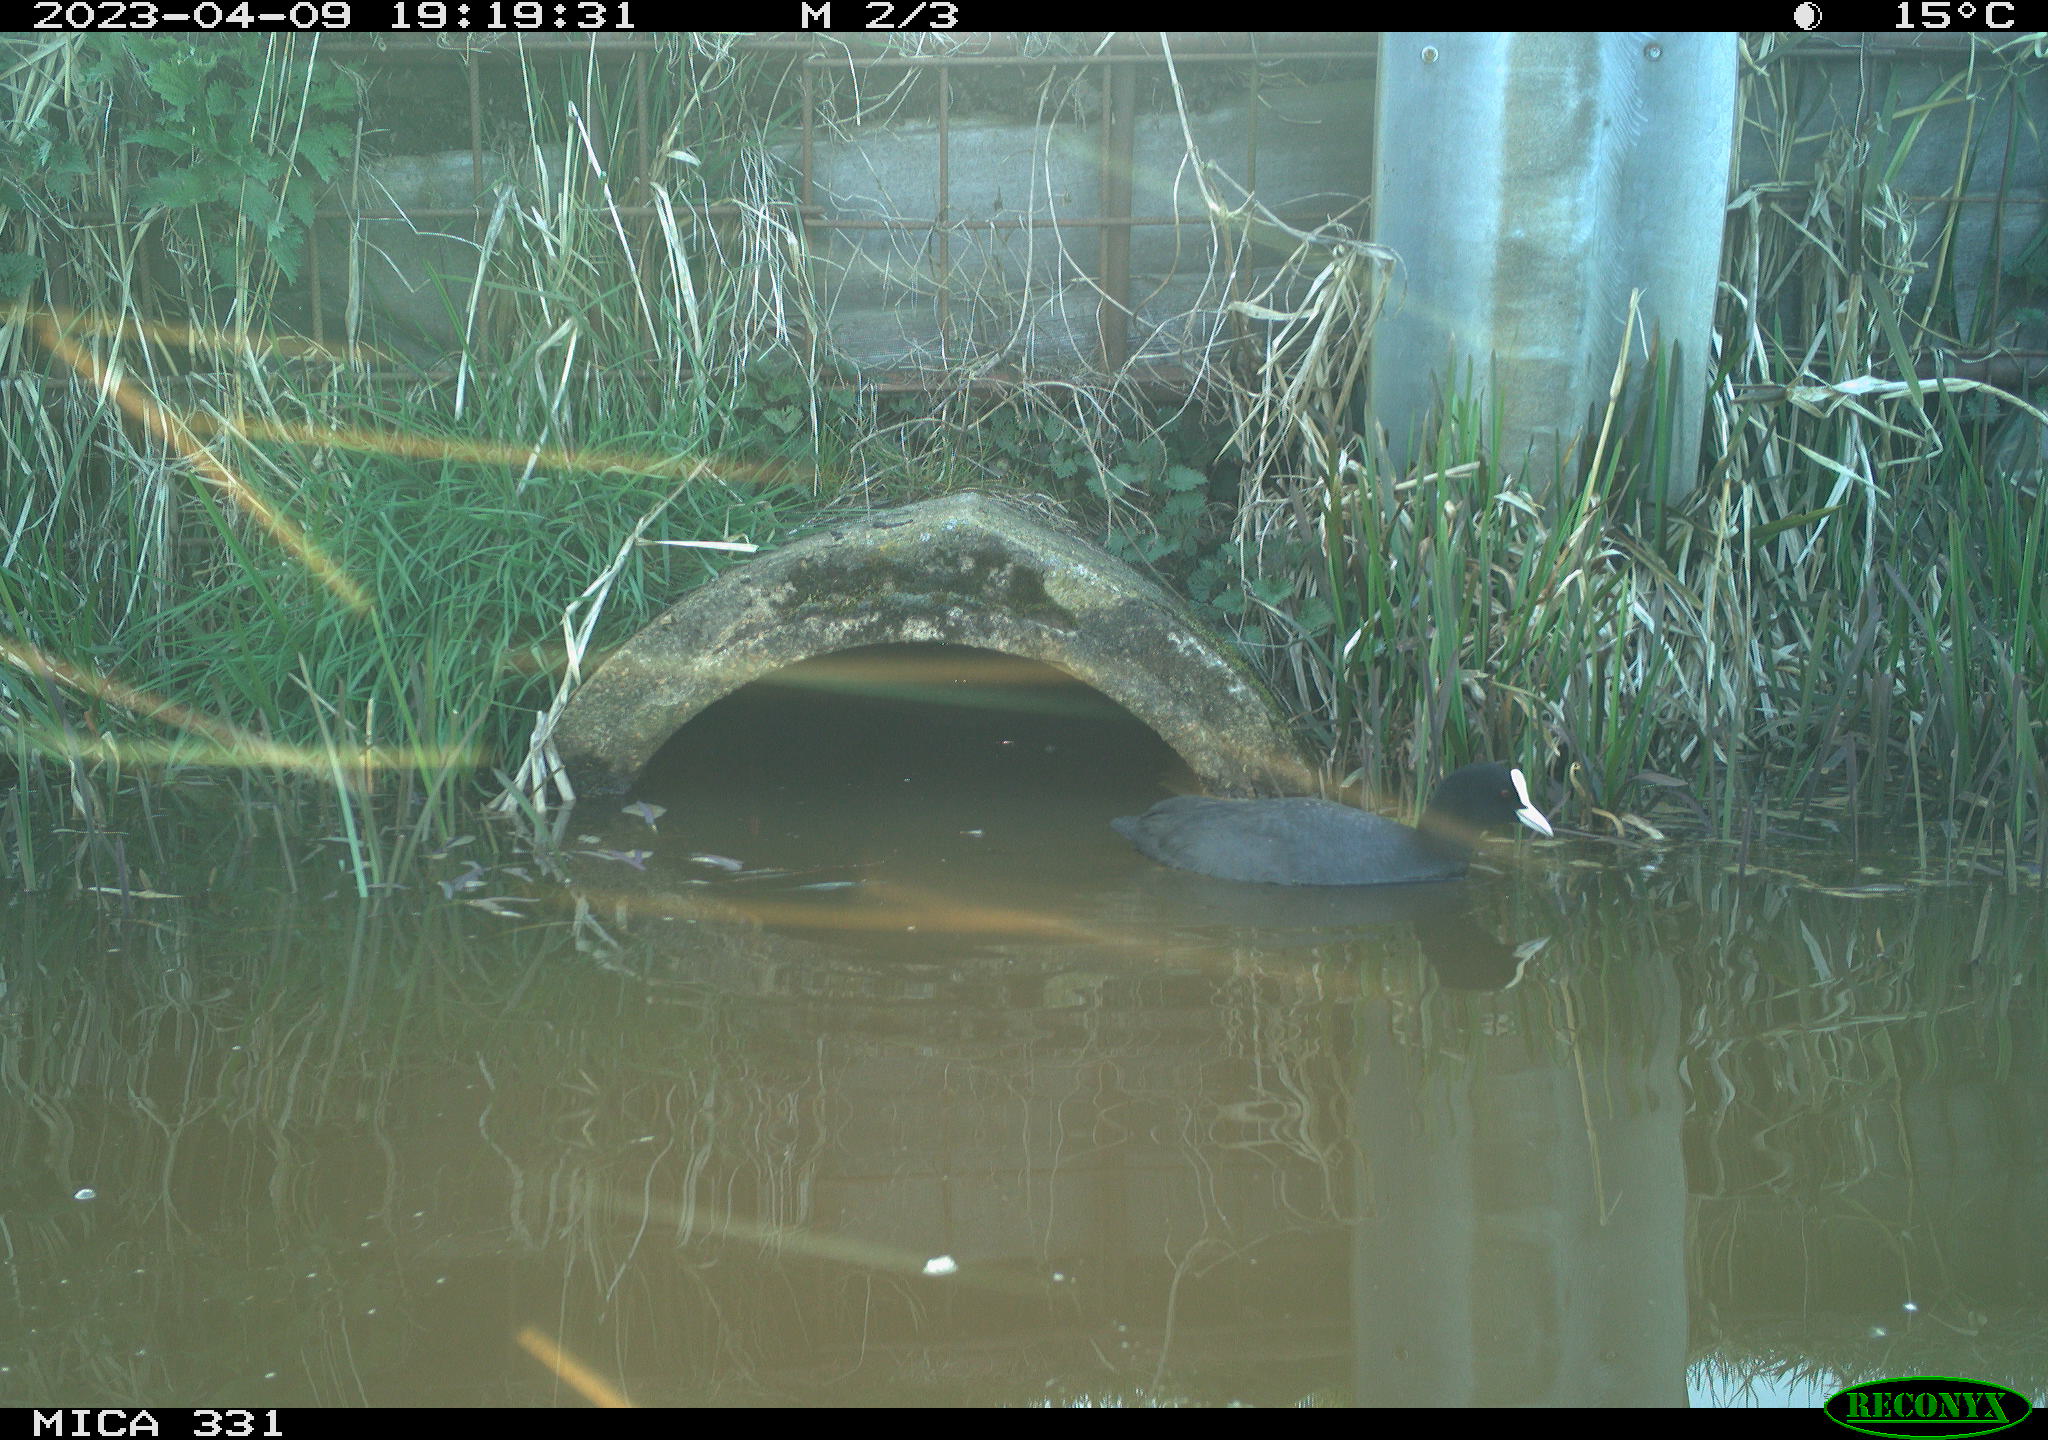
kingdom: Animalia
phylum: Chordata
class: Aves
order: Gruiformes
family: Rallidae
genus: Fulica
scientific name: Fulica atra
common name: Eurasian coot
